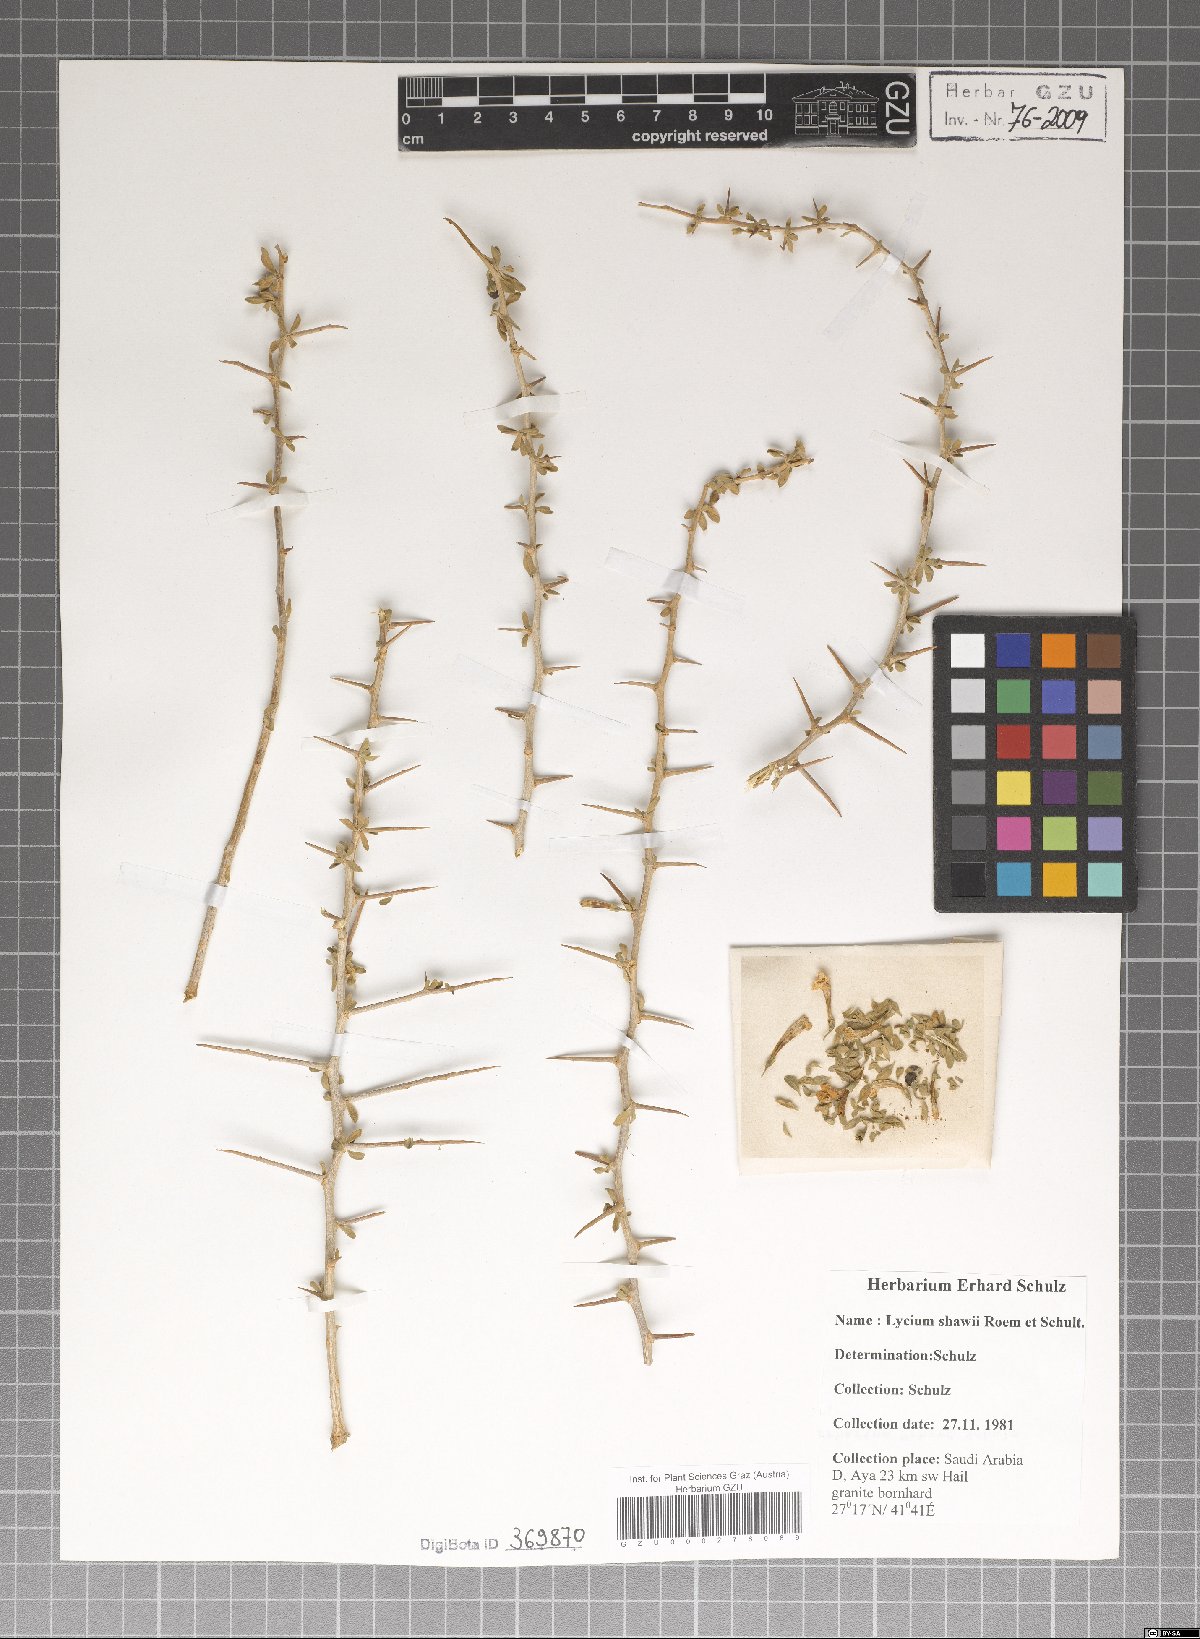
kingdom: Plantae
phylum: Tracheophyta
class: Magnoliopsida
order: Solanales
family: Solanaceae
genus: Lycium
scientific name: Lycium shawii
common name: Boxthorn
